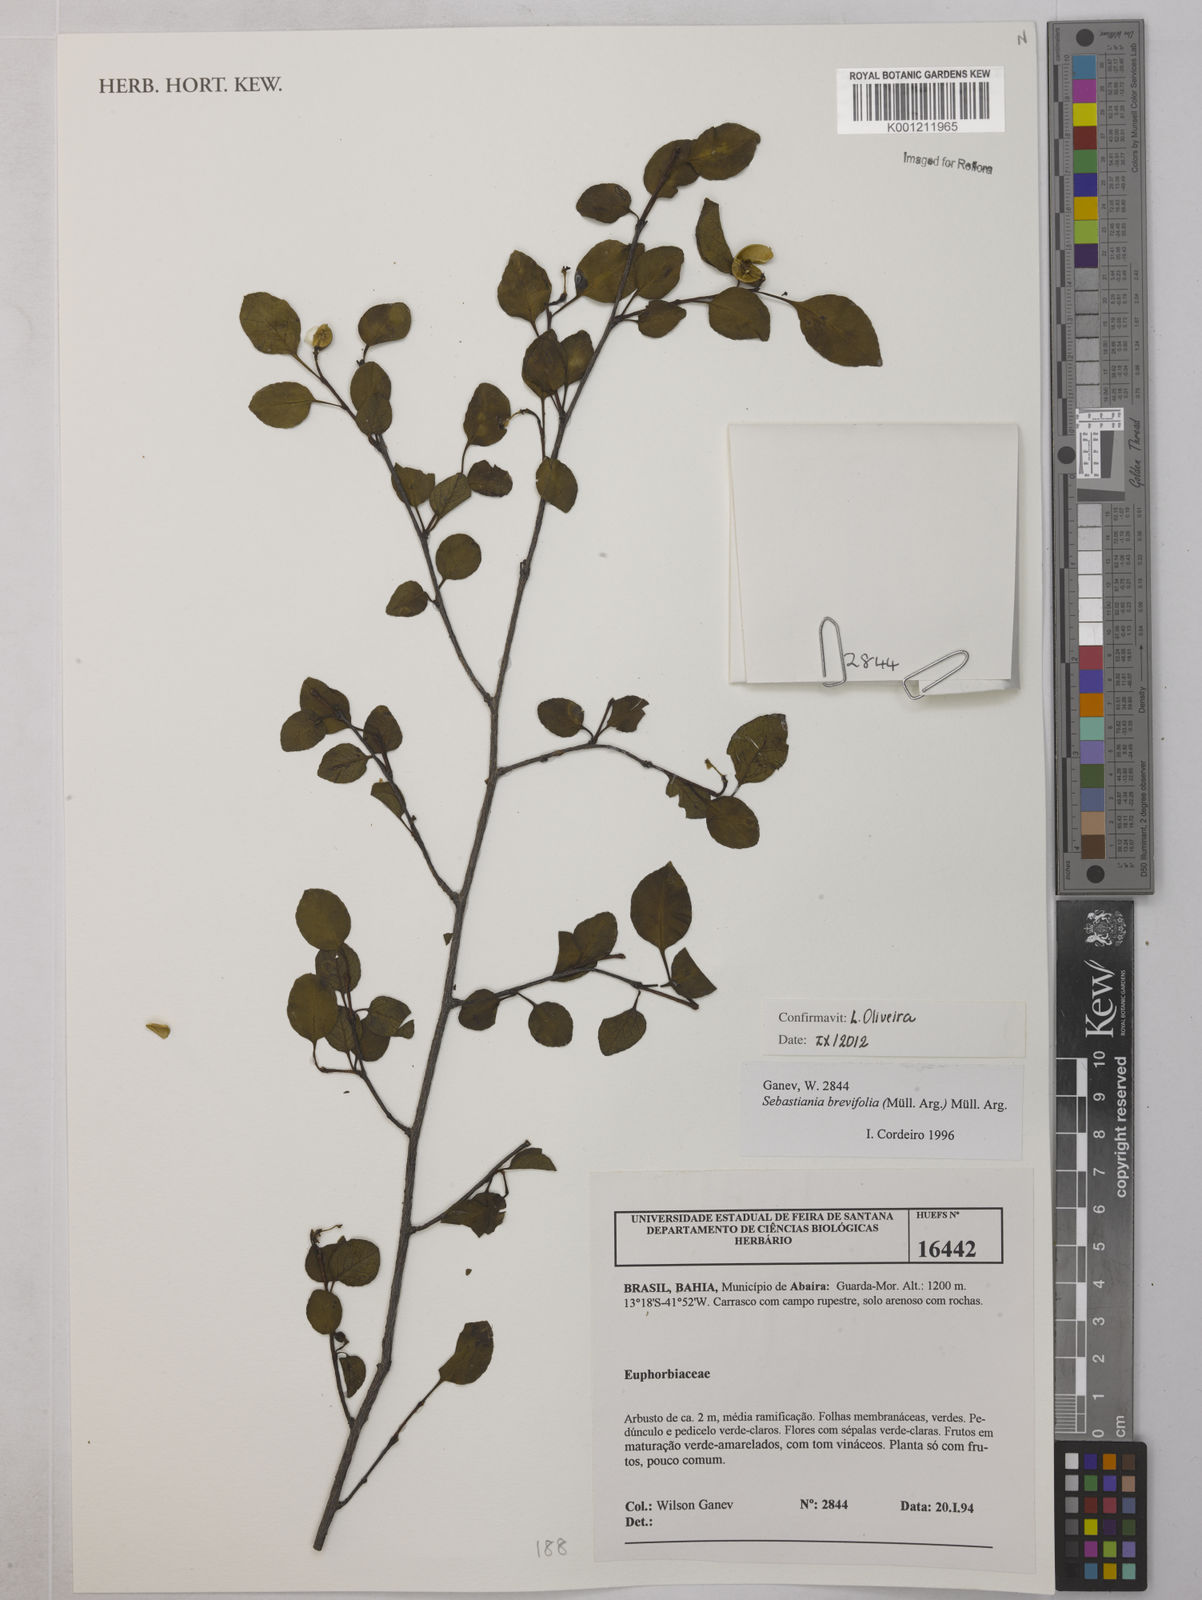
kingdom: Plantae
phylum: Tracheophyta
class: Magnoliopsida
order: Malpighiales
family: Euphorbiaceae
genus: Sebastiania
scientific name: Sebastiania
